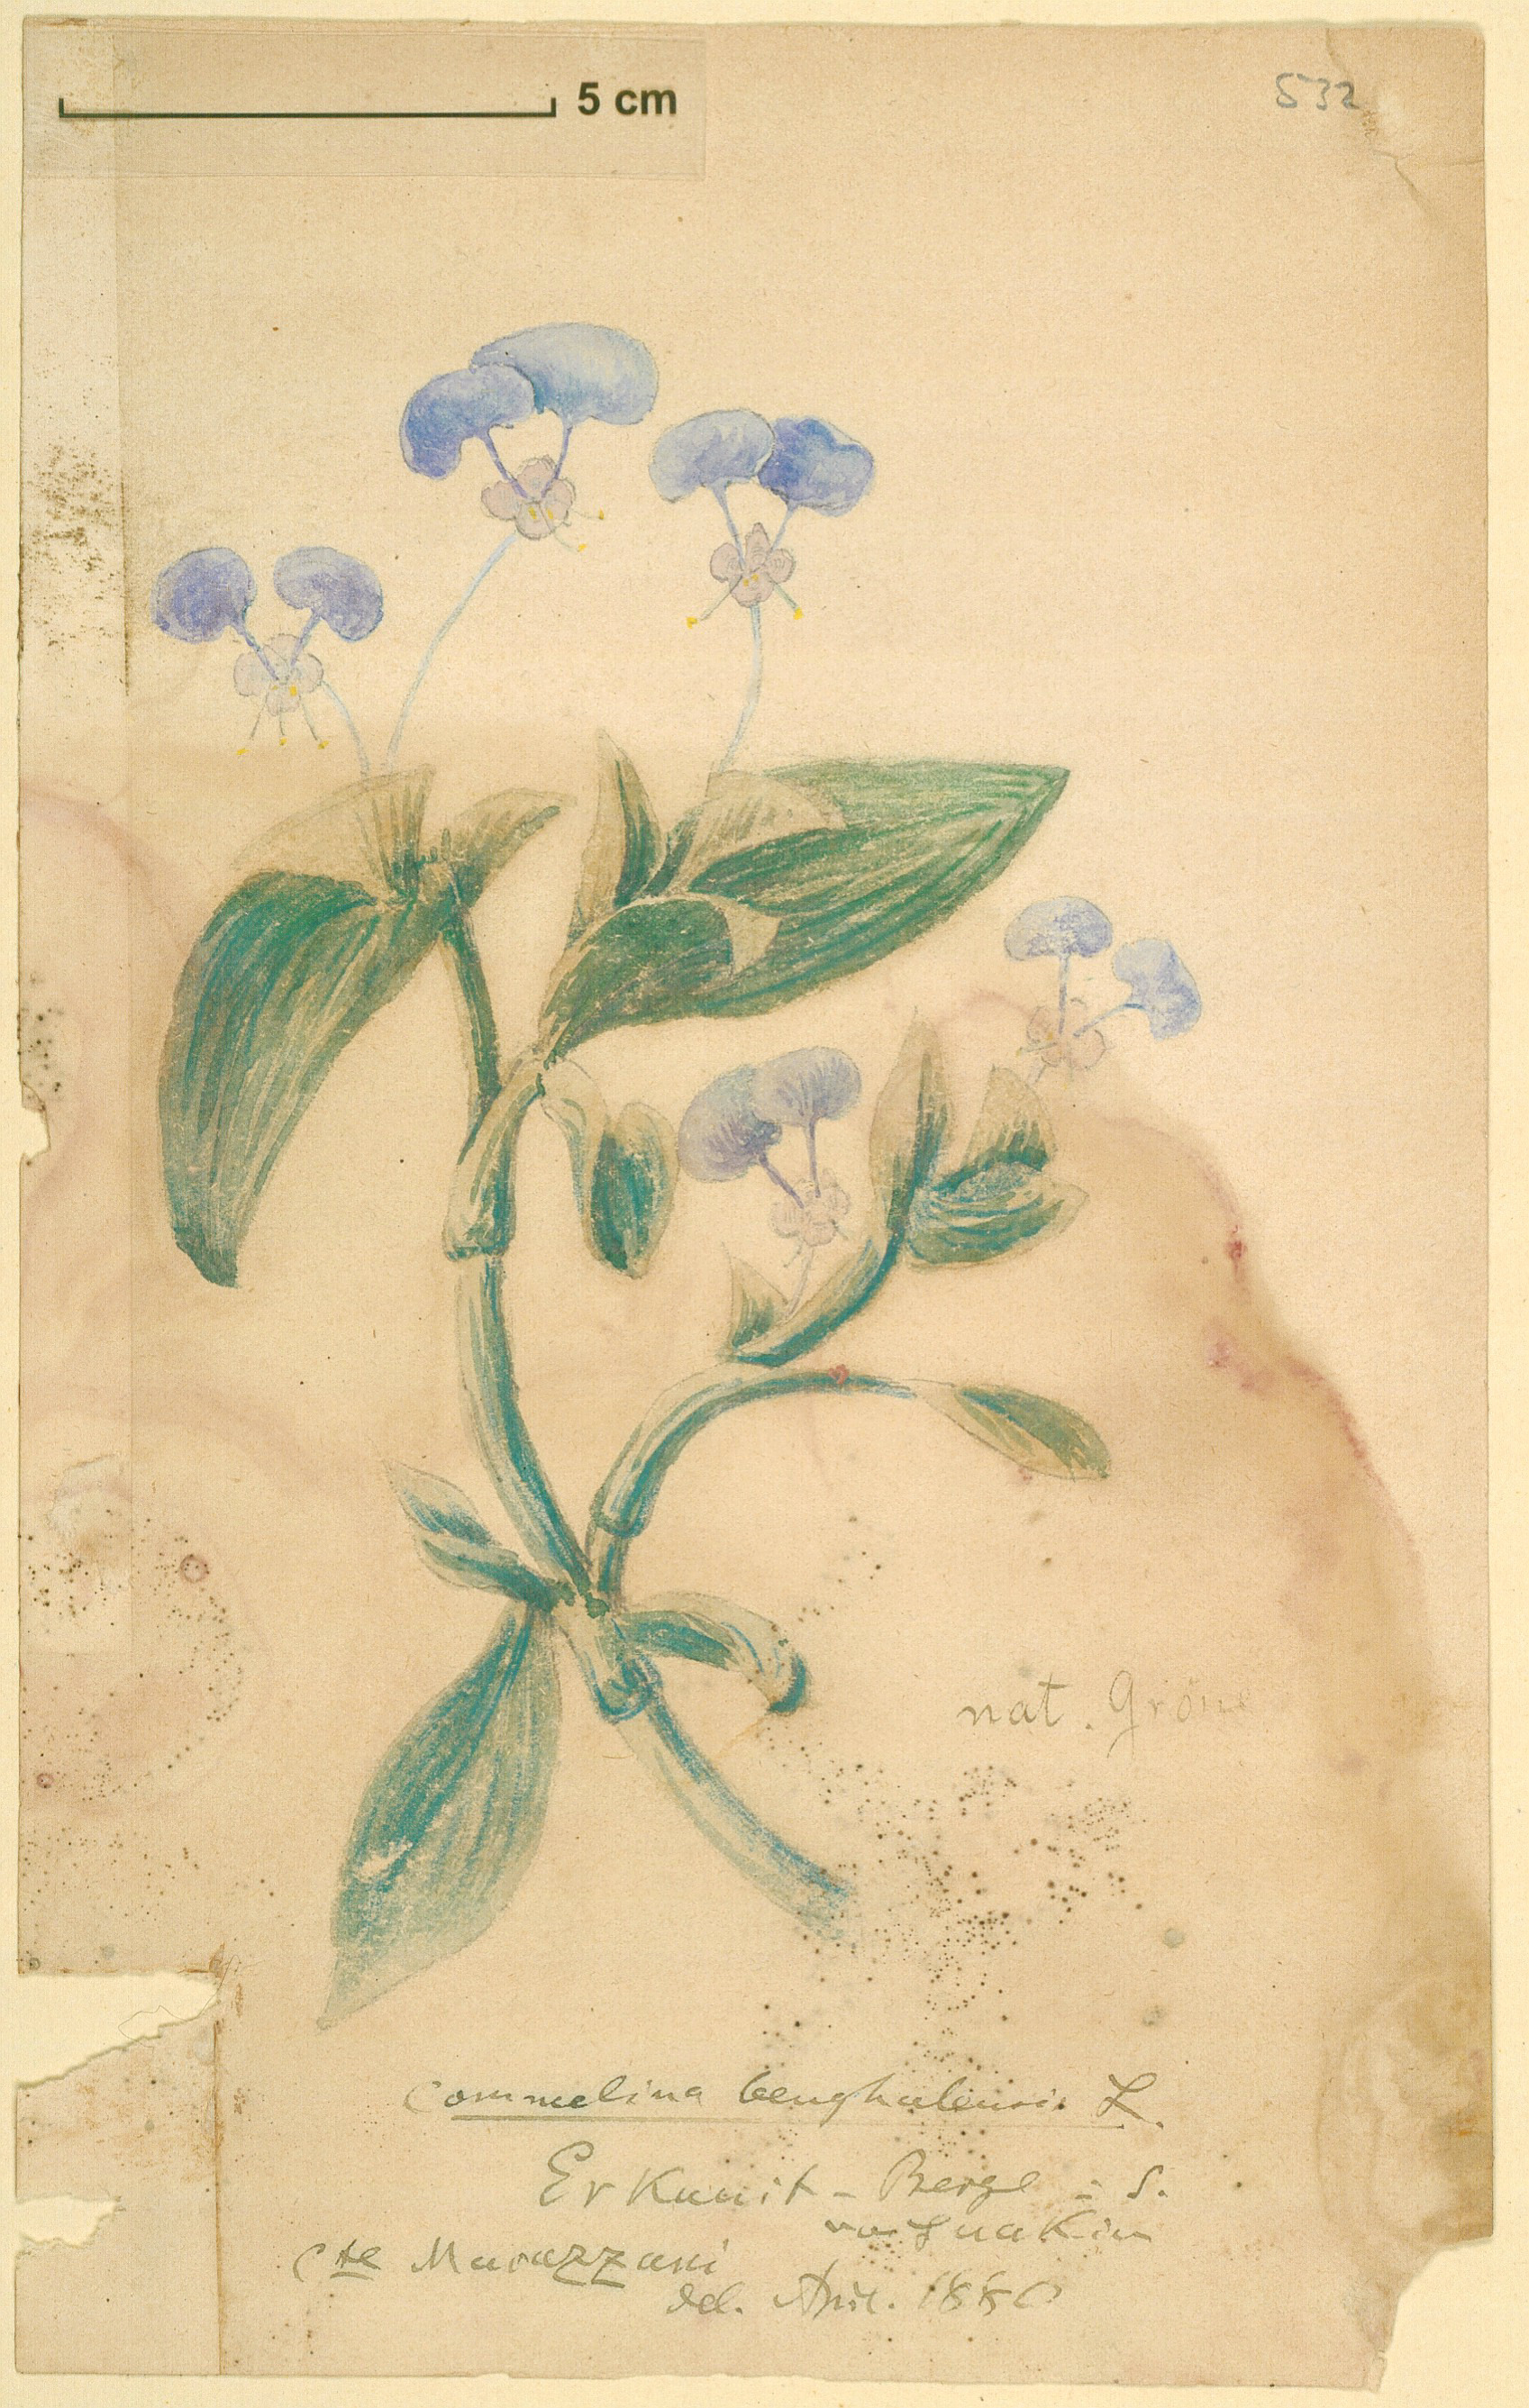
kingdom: Plantae
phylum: Tracheophyta
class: Liliopsida
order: Commelinales
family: Commelinaceae
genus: Commelina
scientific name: Commelina benghalensis
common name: Jio
